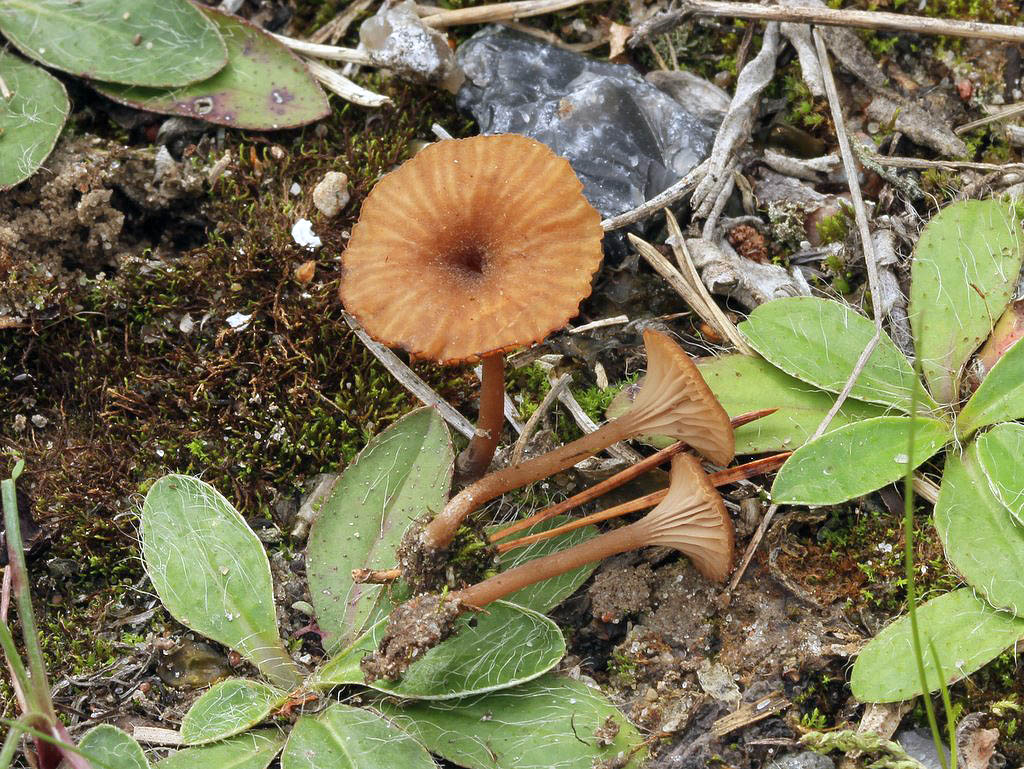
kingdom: Fungi
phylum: Basidiomycota
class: Agaricomycetes
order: Agaricales
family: Tricholomataceae
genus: Omphalina
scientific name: Omphalina pyxidata
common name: rødbrun navlehat
